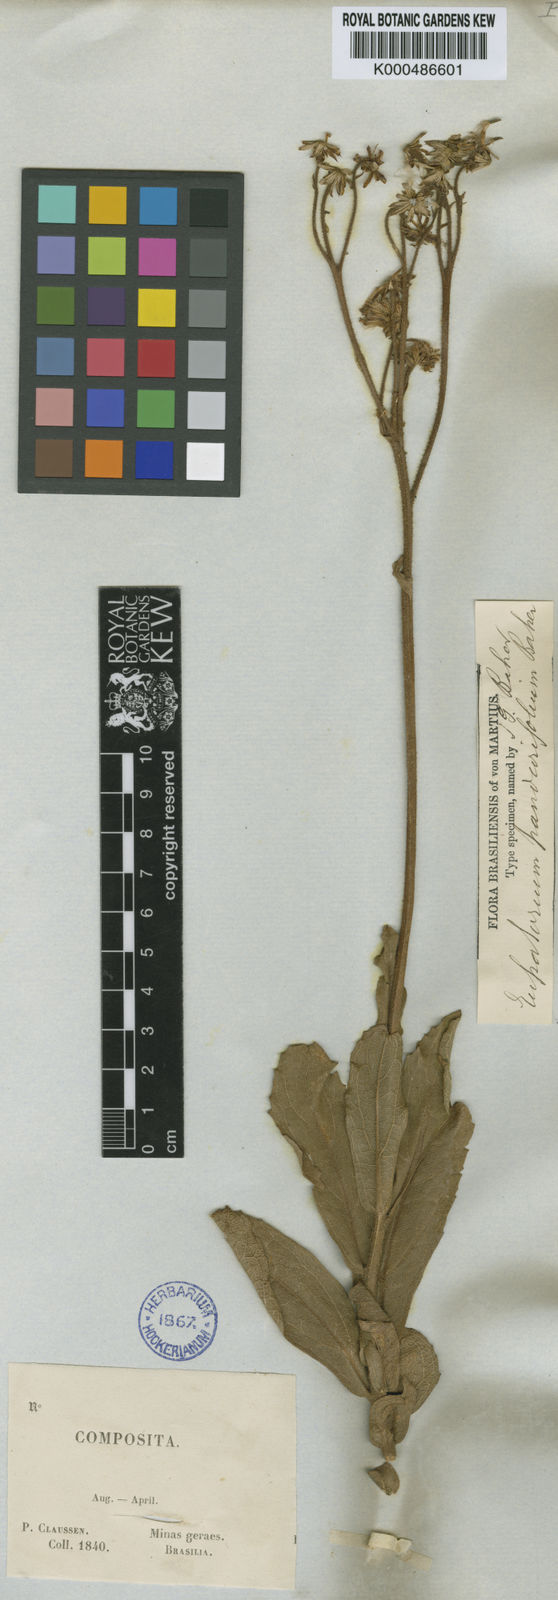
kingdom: Plantae
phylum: Tracheophyta
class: Magnoliopsida
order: Asterales
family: Asteraceae
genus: Heterocondylus
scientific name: Heterocondylus amphidictyus
